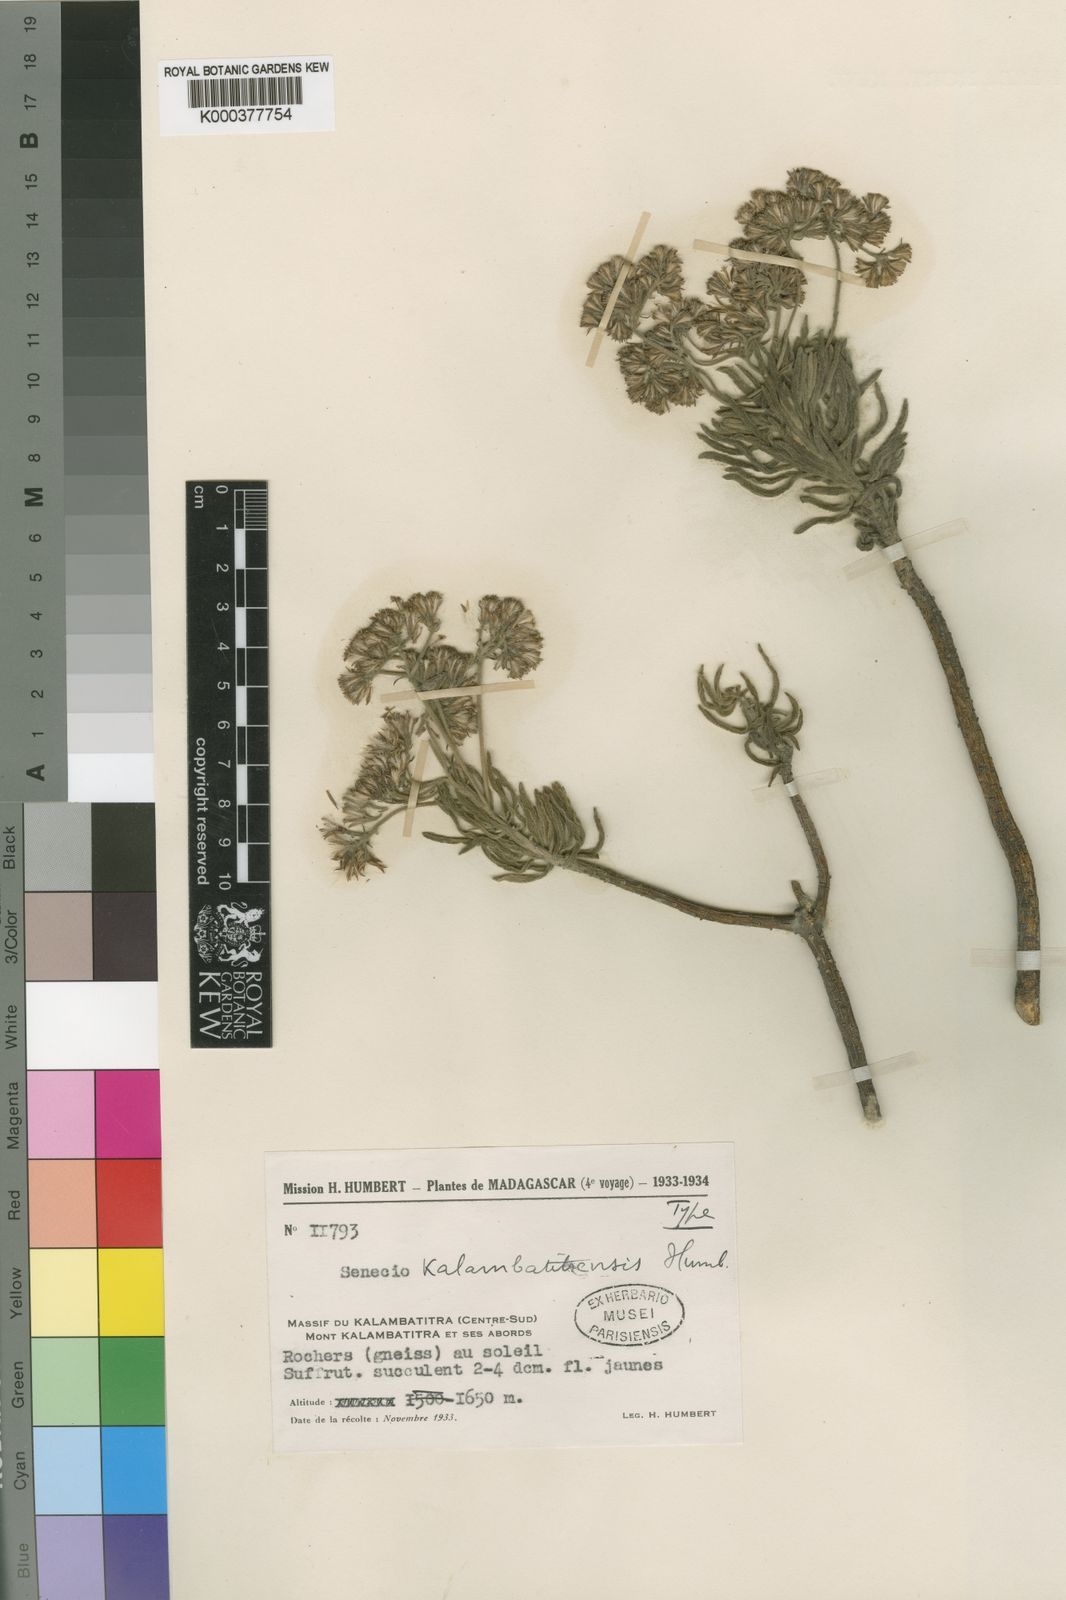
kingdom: Plantae
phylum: Tracheophyta
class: Magnoliopsida
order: Asterales
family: Asteraceae
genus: Senecio
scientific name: Senecio kalambatitrensis
